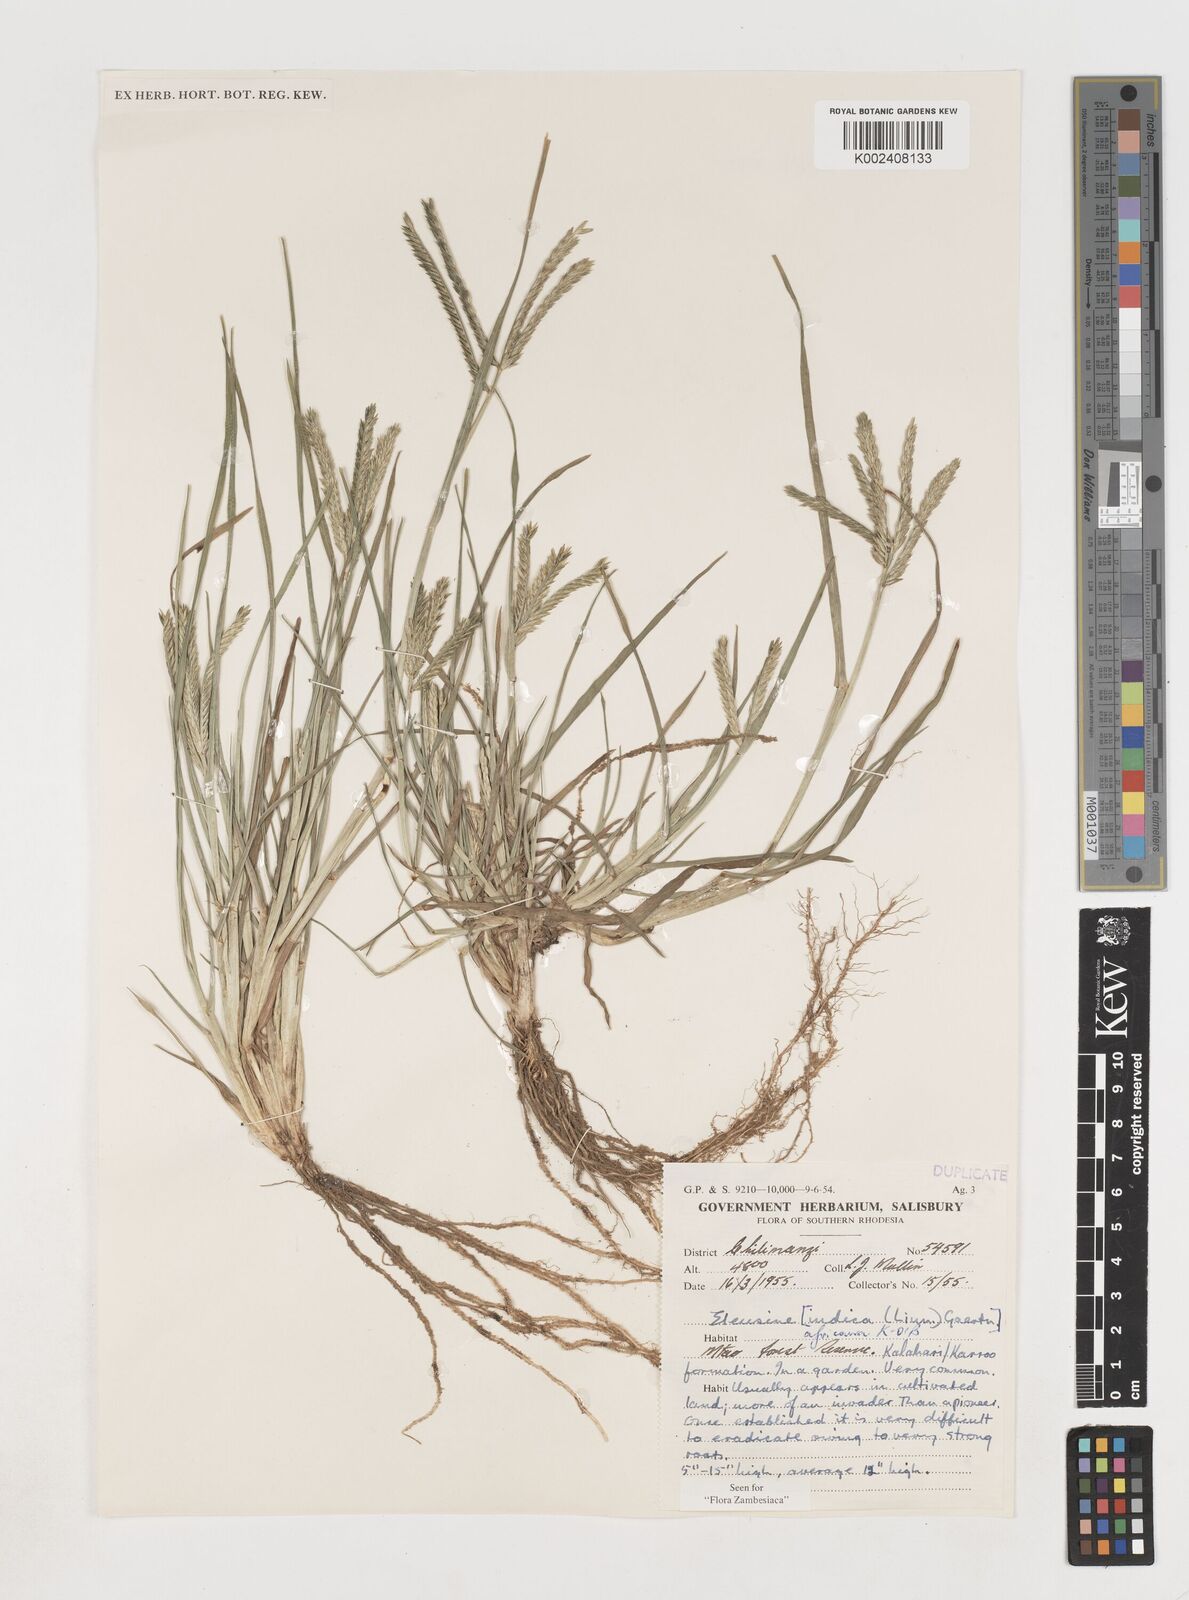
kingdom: Plantae
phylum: Tracheophyta
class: Liliopsida
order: Poales
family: Poaceae
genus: Eleusine
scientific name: Eleusine africana
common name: Wild african finger millet
